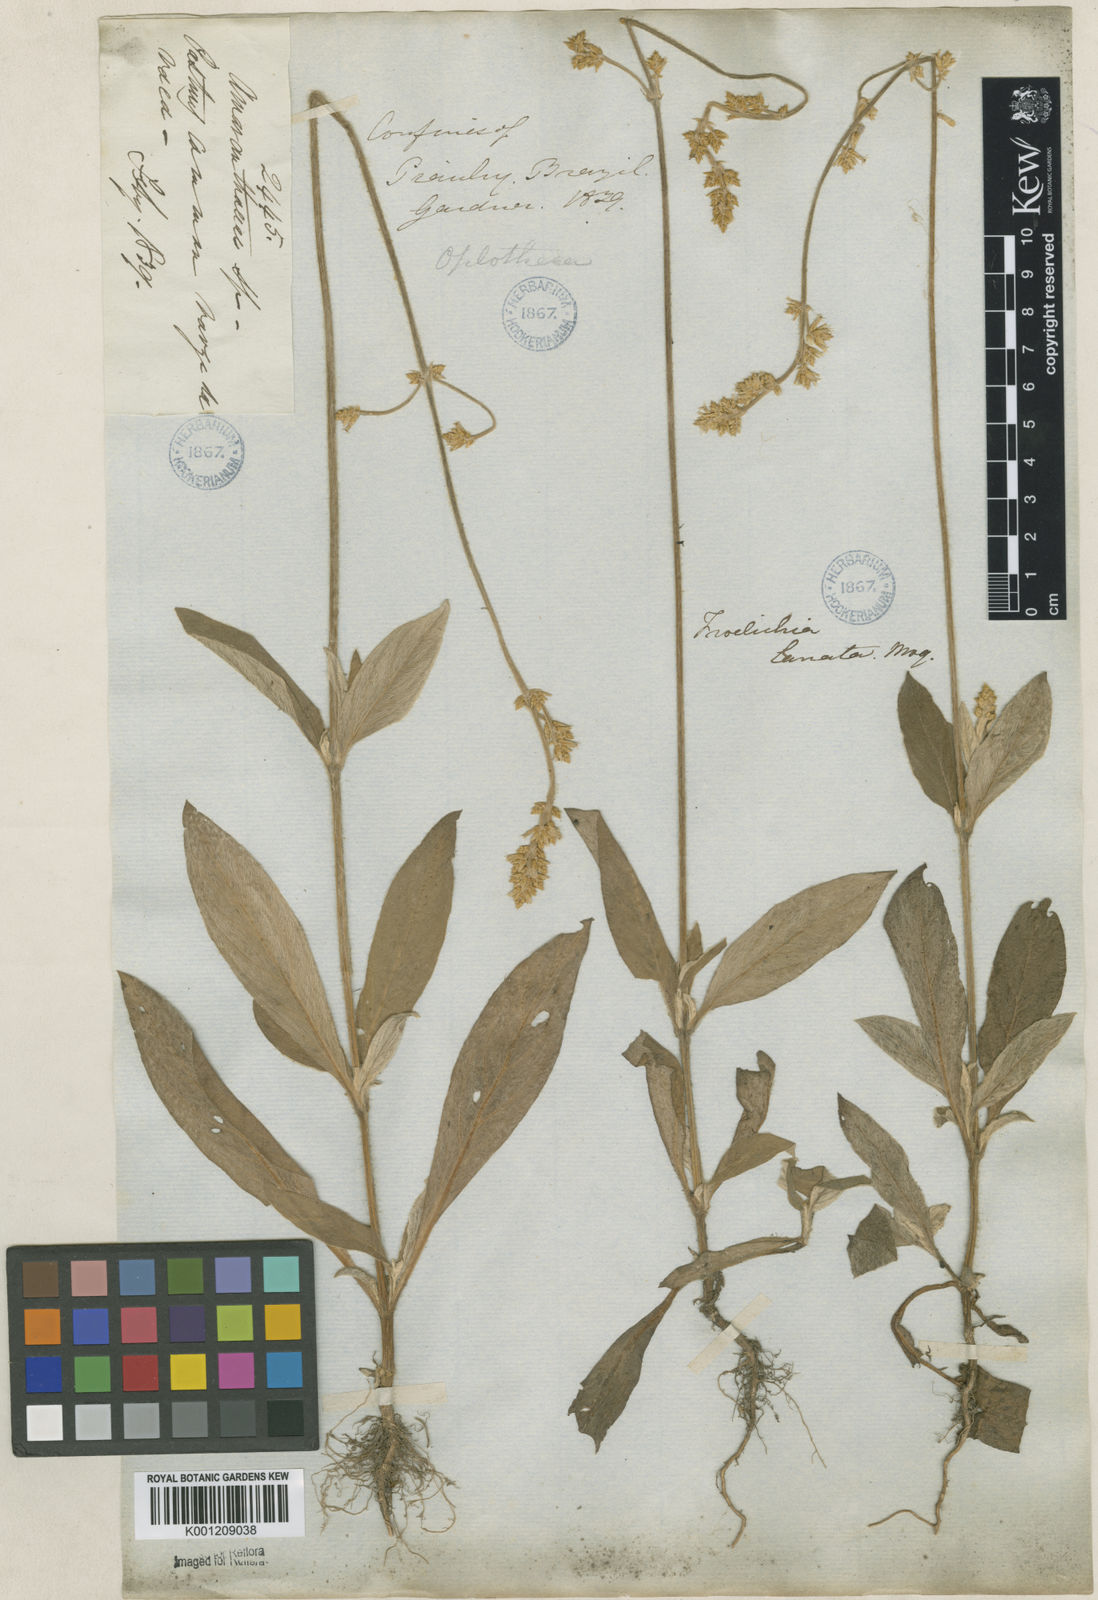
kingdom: Plantae
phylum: Tracheophyta
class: Magnoliopsida
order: Caryophyllales
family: Amaranthaceae
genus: Froelichia
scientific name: Froelichia humboldtiana
